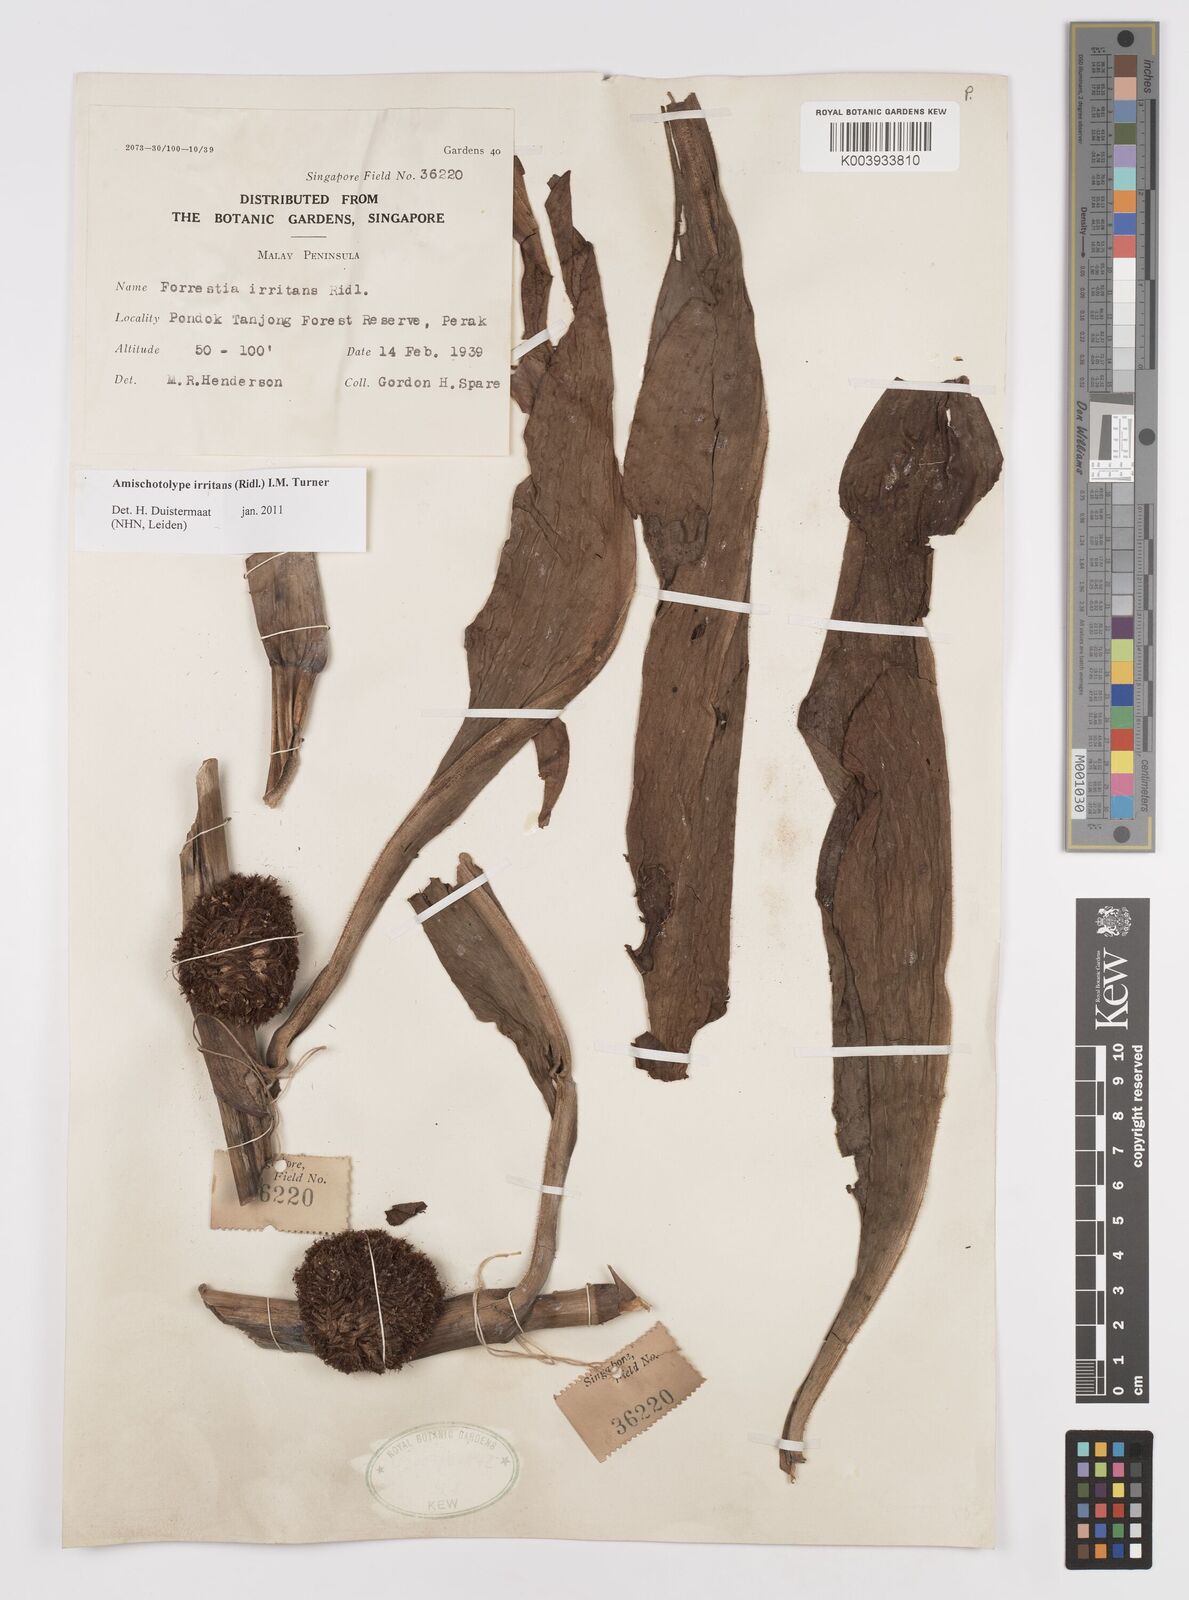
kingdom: Plantae
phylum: Tracheophyta
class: Liliopsida
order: Commelinales
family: Commelinaceae
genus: Amischotolype
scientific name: Amischotolype irritans
